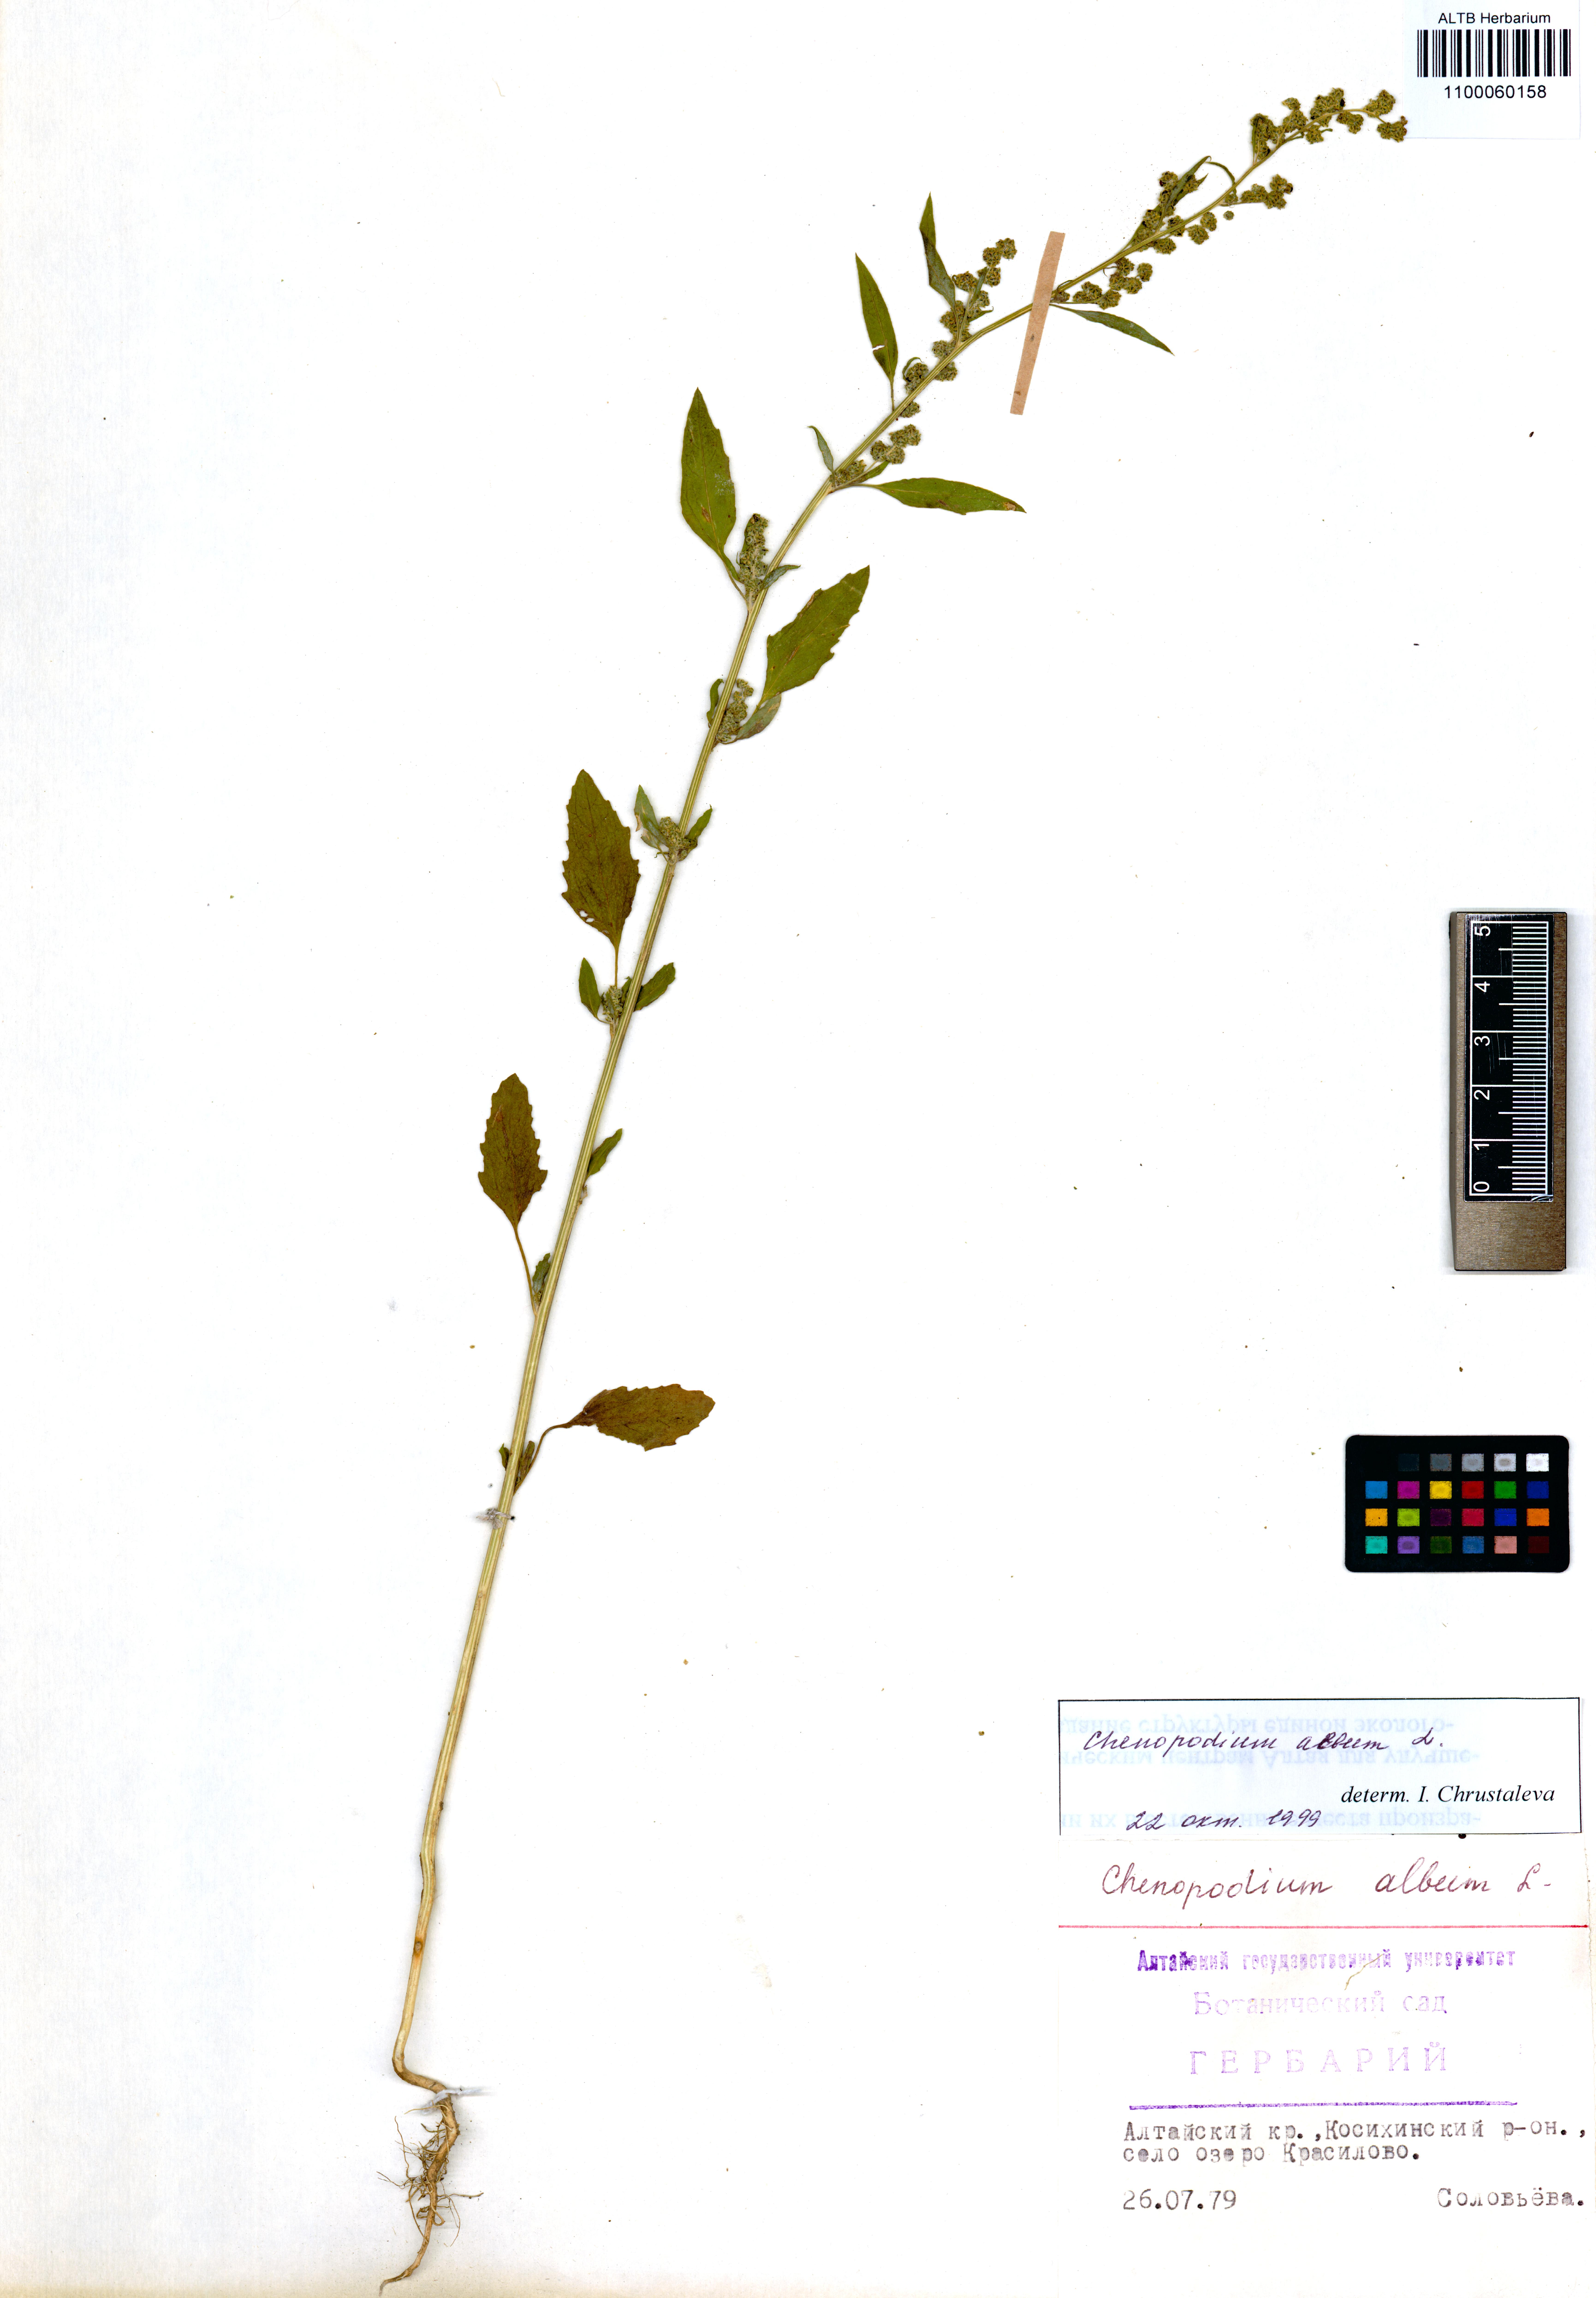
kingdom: Plantae
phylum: Tracheophyta
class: Magnoliopsida
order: Caryophyllales
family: Amaranthaceae
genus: Chenopodium
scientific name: Chenopodium album
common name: Fat-hen
